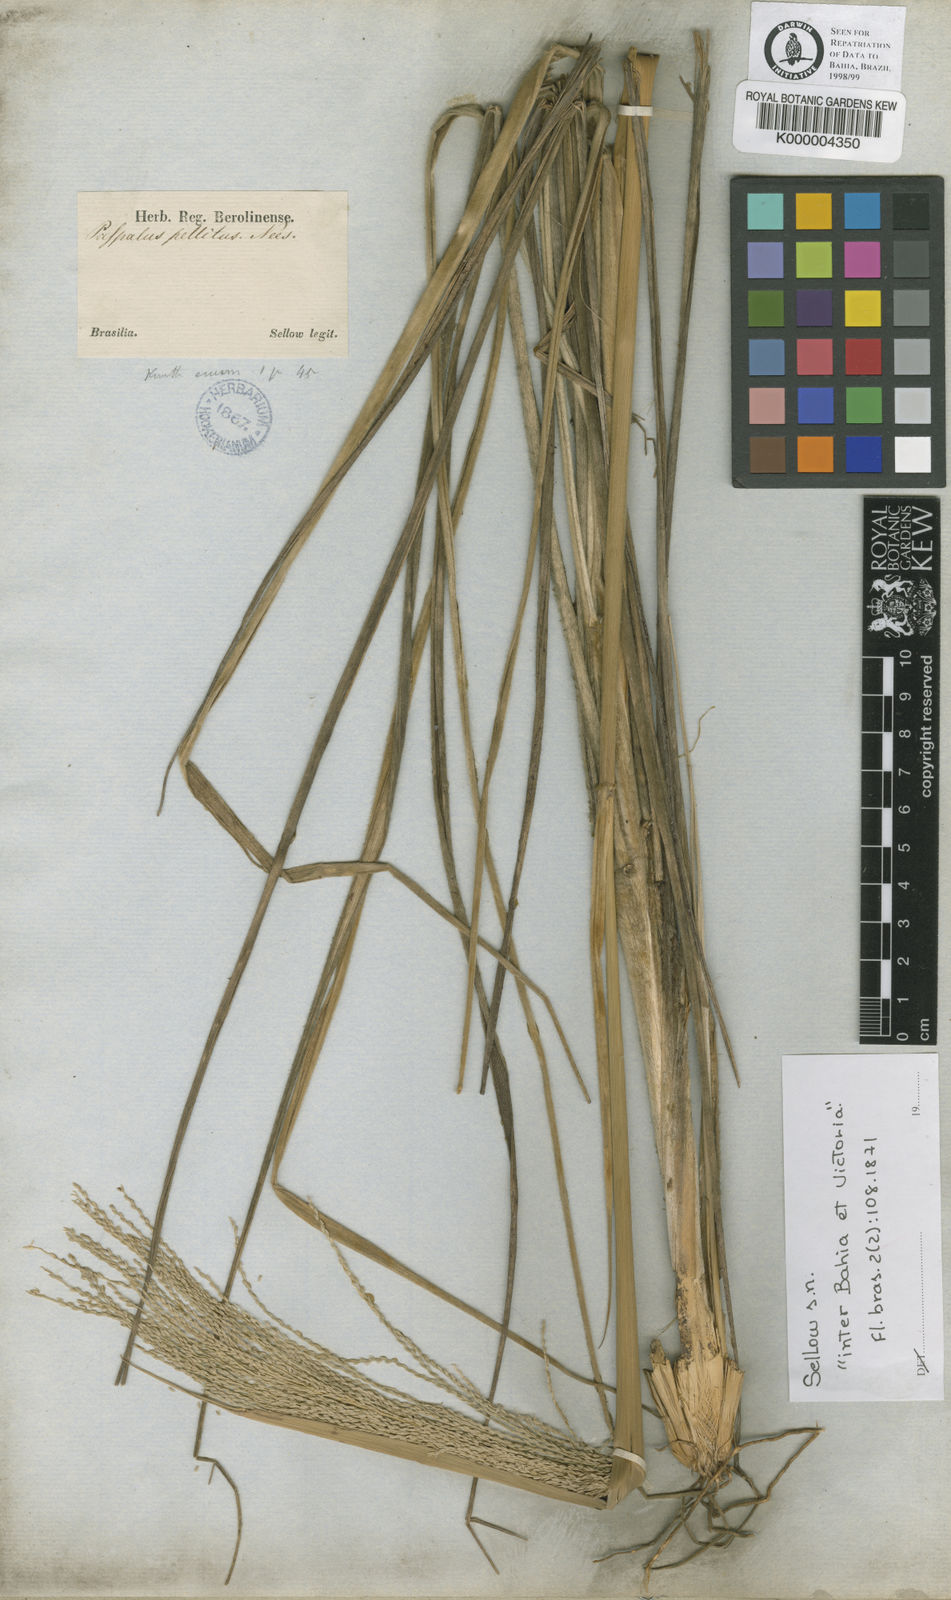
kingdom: Plantae
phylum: Tracheophyta
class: Liliopsida
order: Poales
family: Poaceae
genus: Axonopus
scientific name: Axonopus siccus
